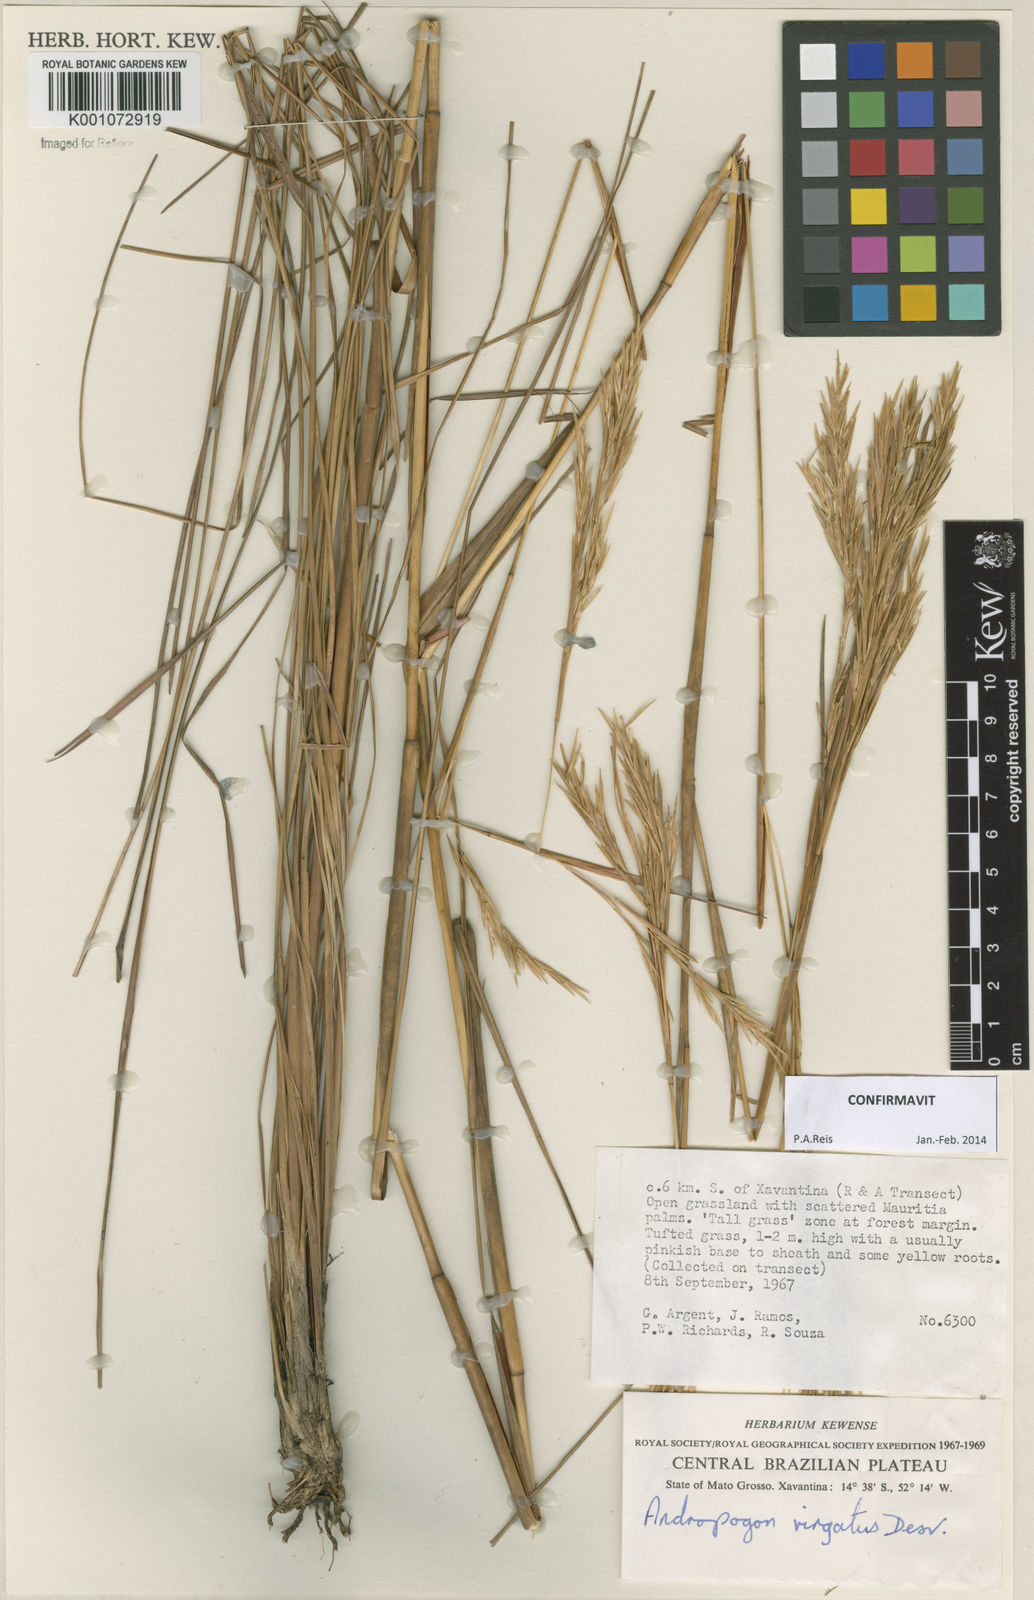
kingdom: Plantae
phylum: Tracheophyta
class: Liliopsida
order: Poales
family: Poaceae
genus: Andropogon
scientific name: Andropogon virgatus
